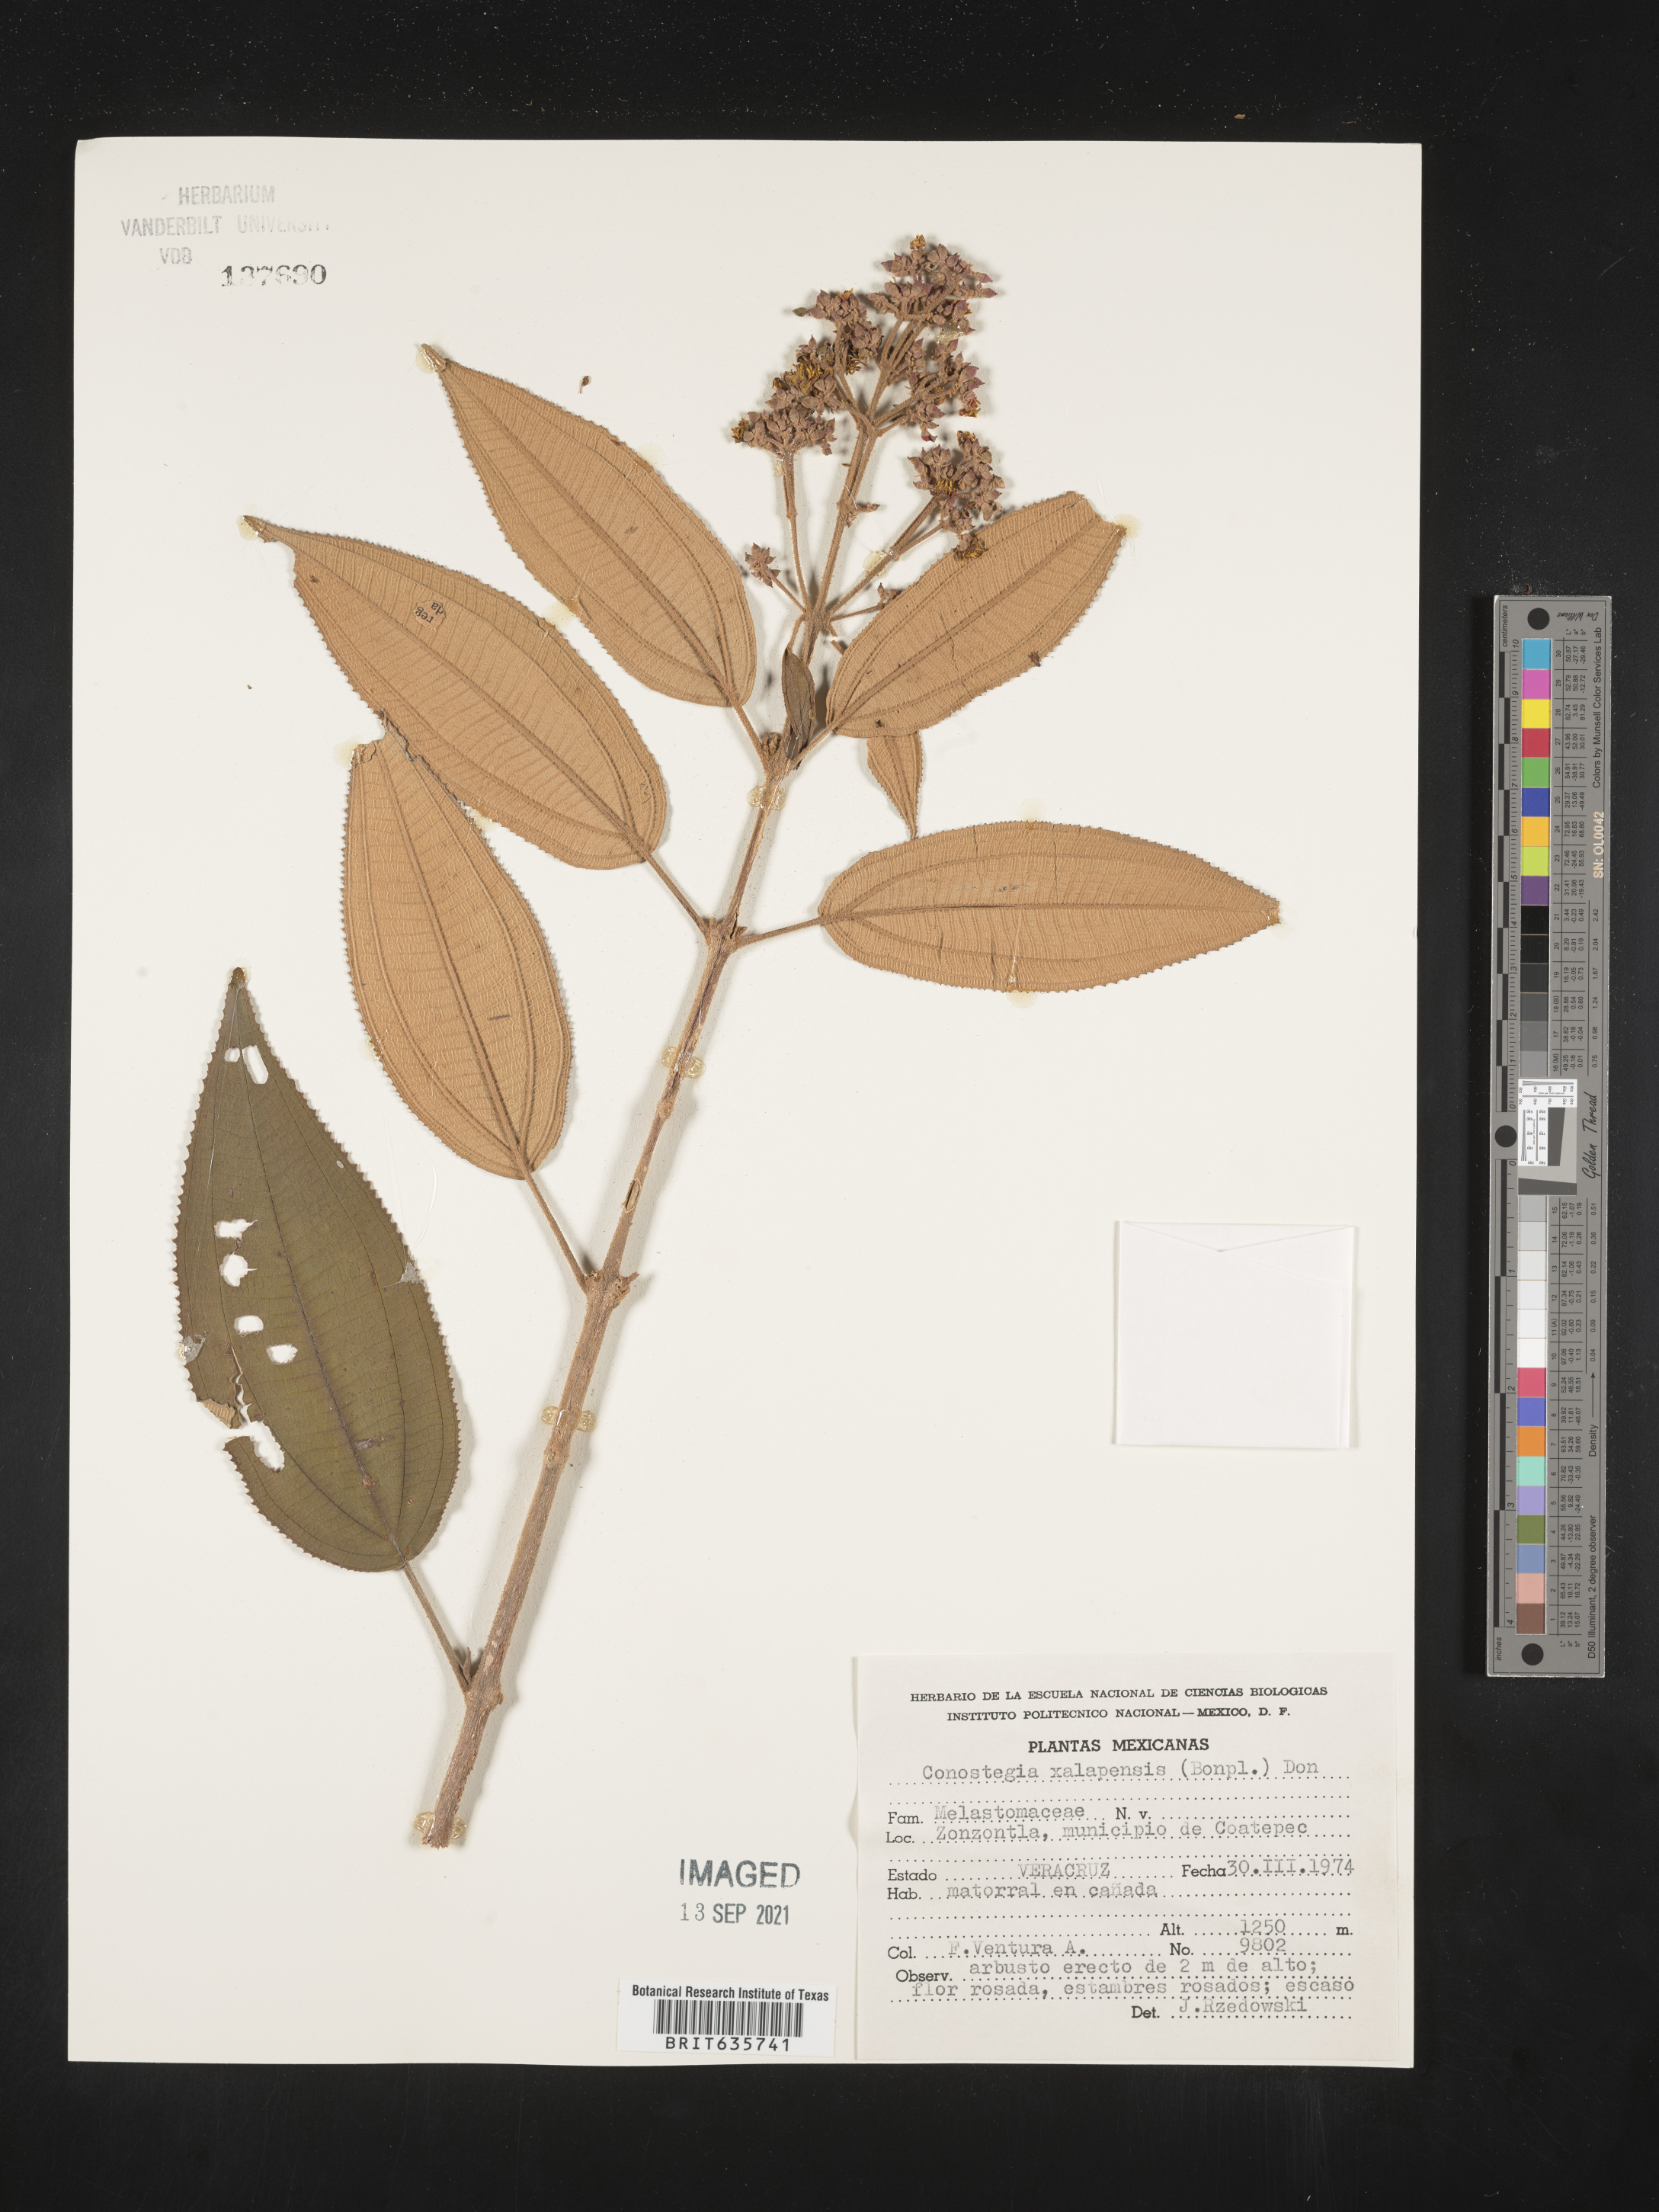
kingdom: Plantae
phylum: Tracheophyta
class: Magnoliopsida
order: Myrtales
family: Melastomataceae
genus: Miconia
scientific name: Miconia
